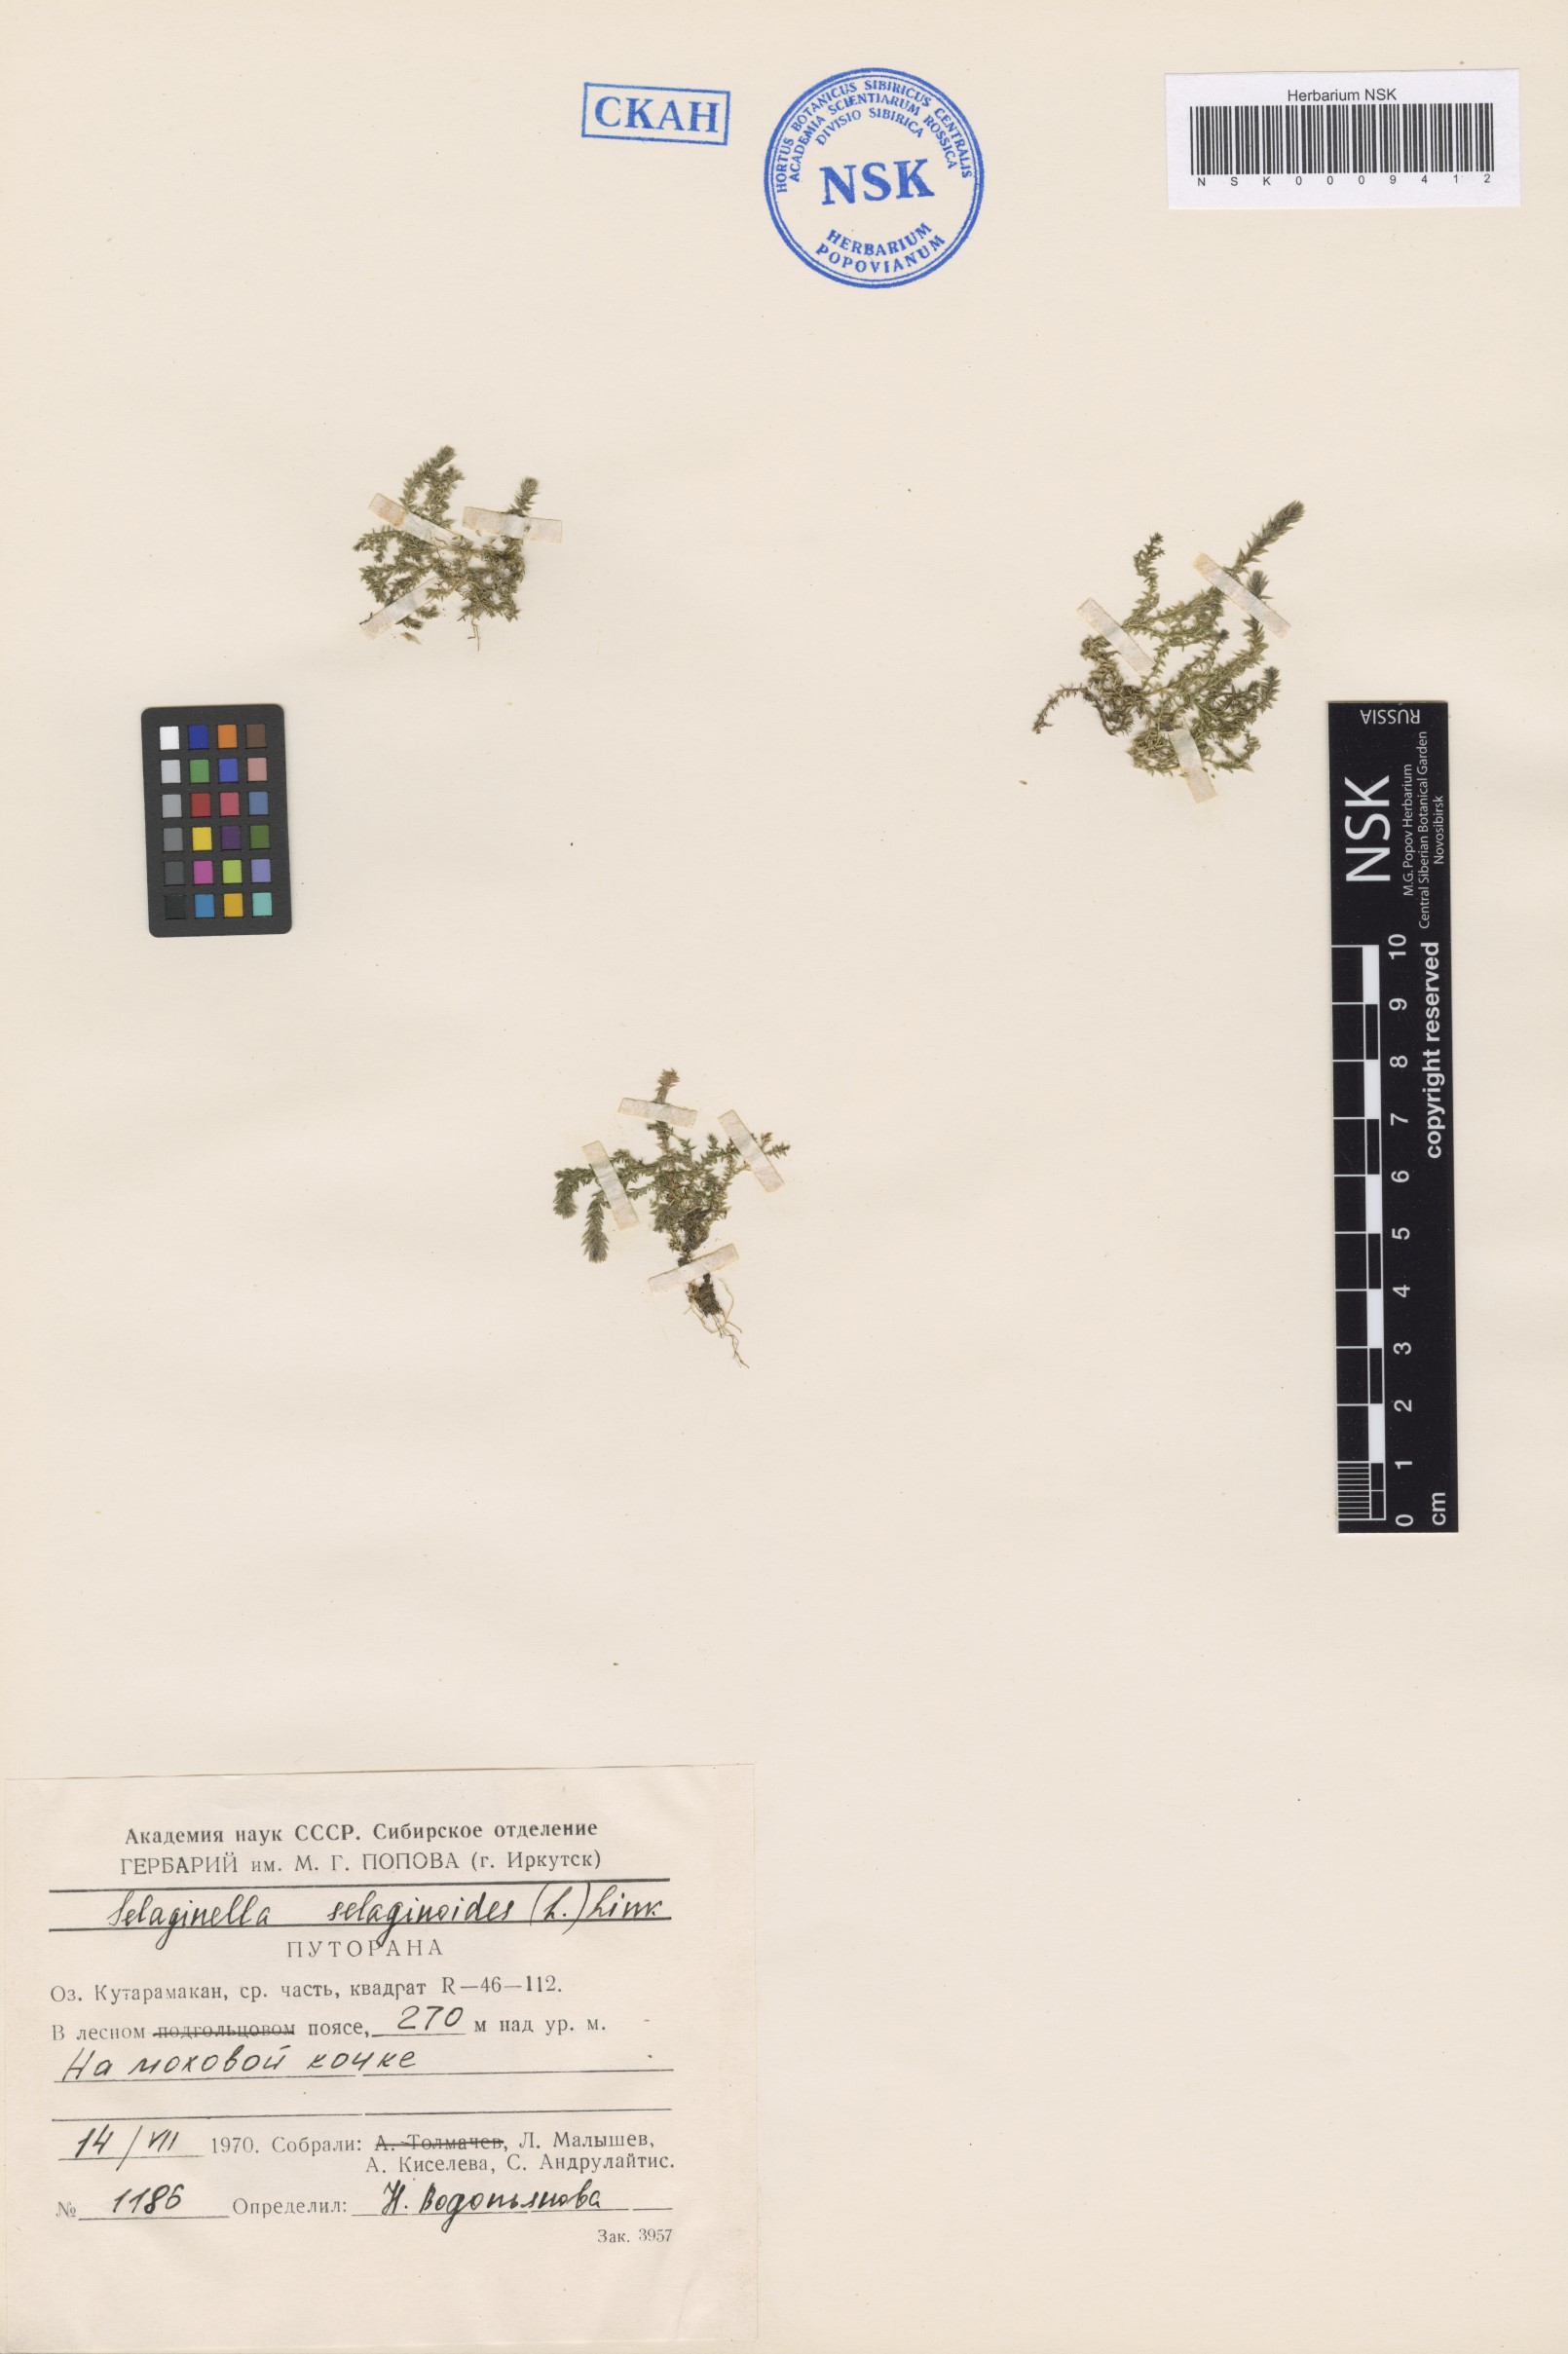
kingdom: Plantae
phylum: Tracheophyta
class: Lycopodiopsida
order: Selaginellales
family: Selaginellaceae
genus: Selaginella
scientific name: Selaginella selaginoides
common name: Prickly mountain-moss
